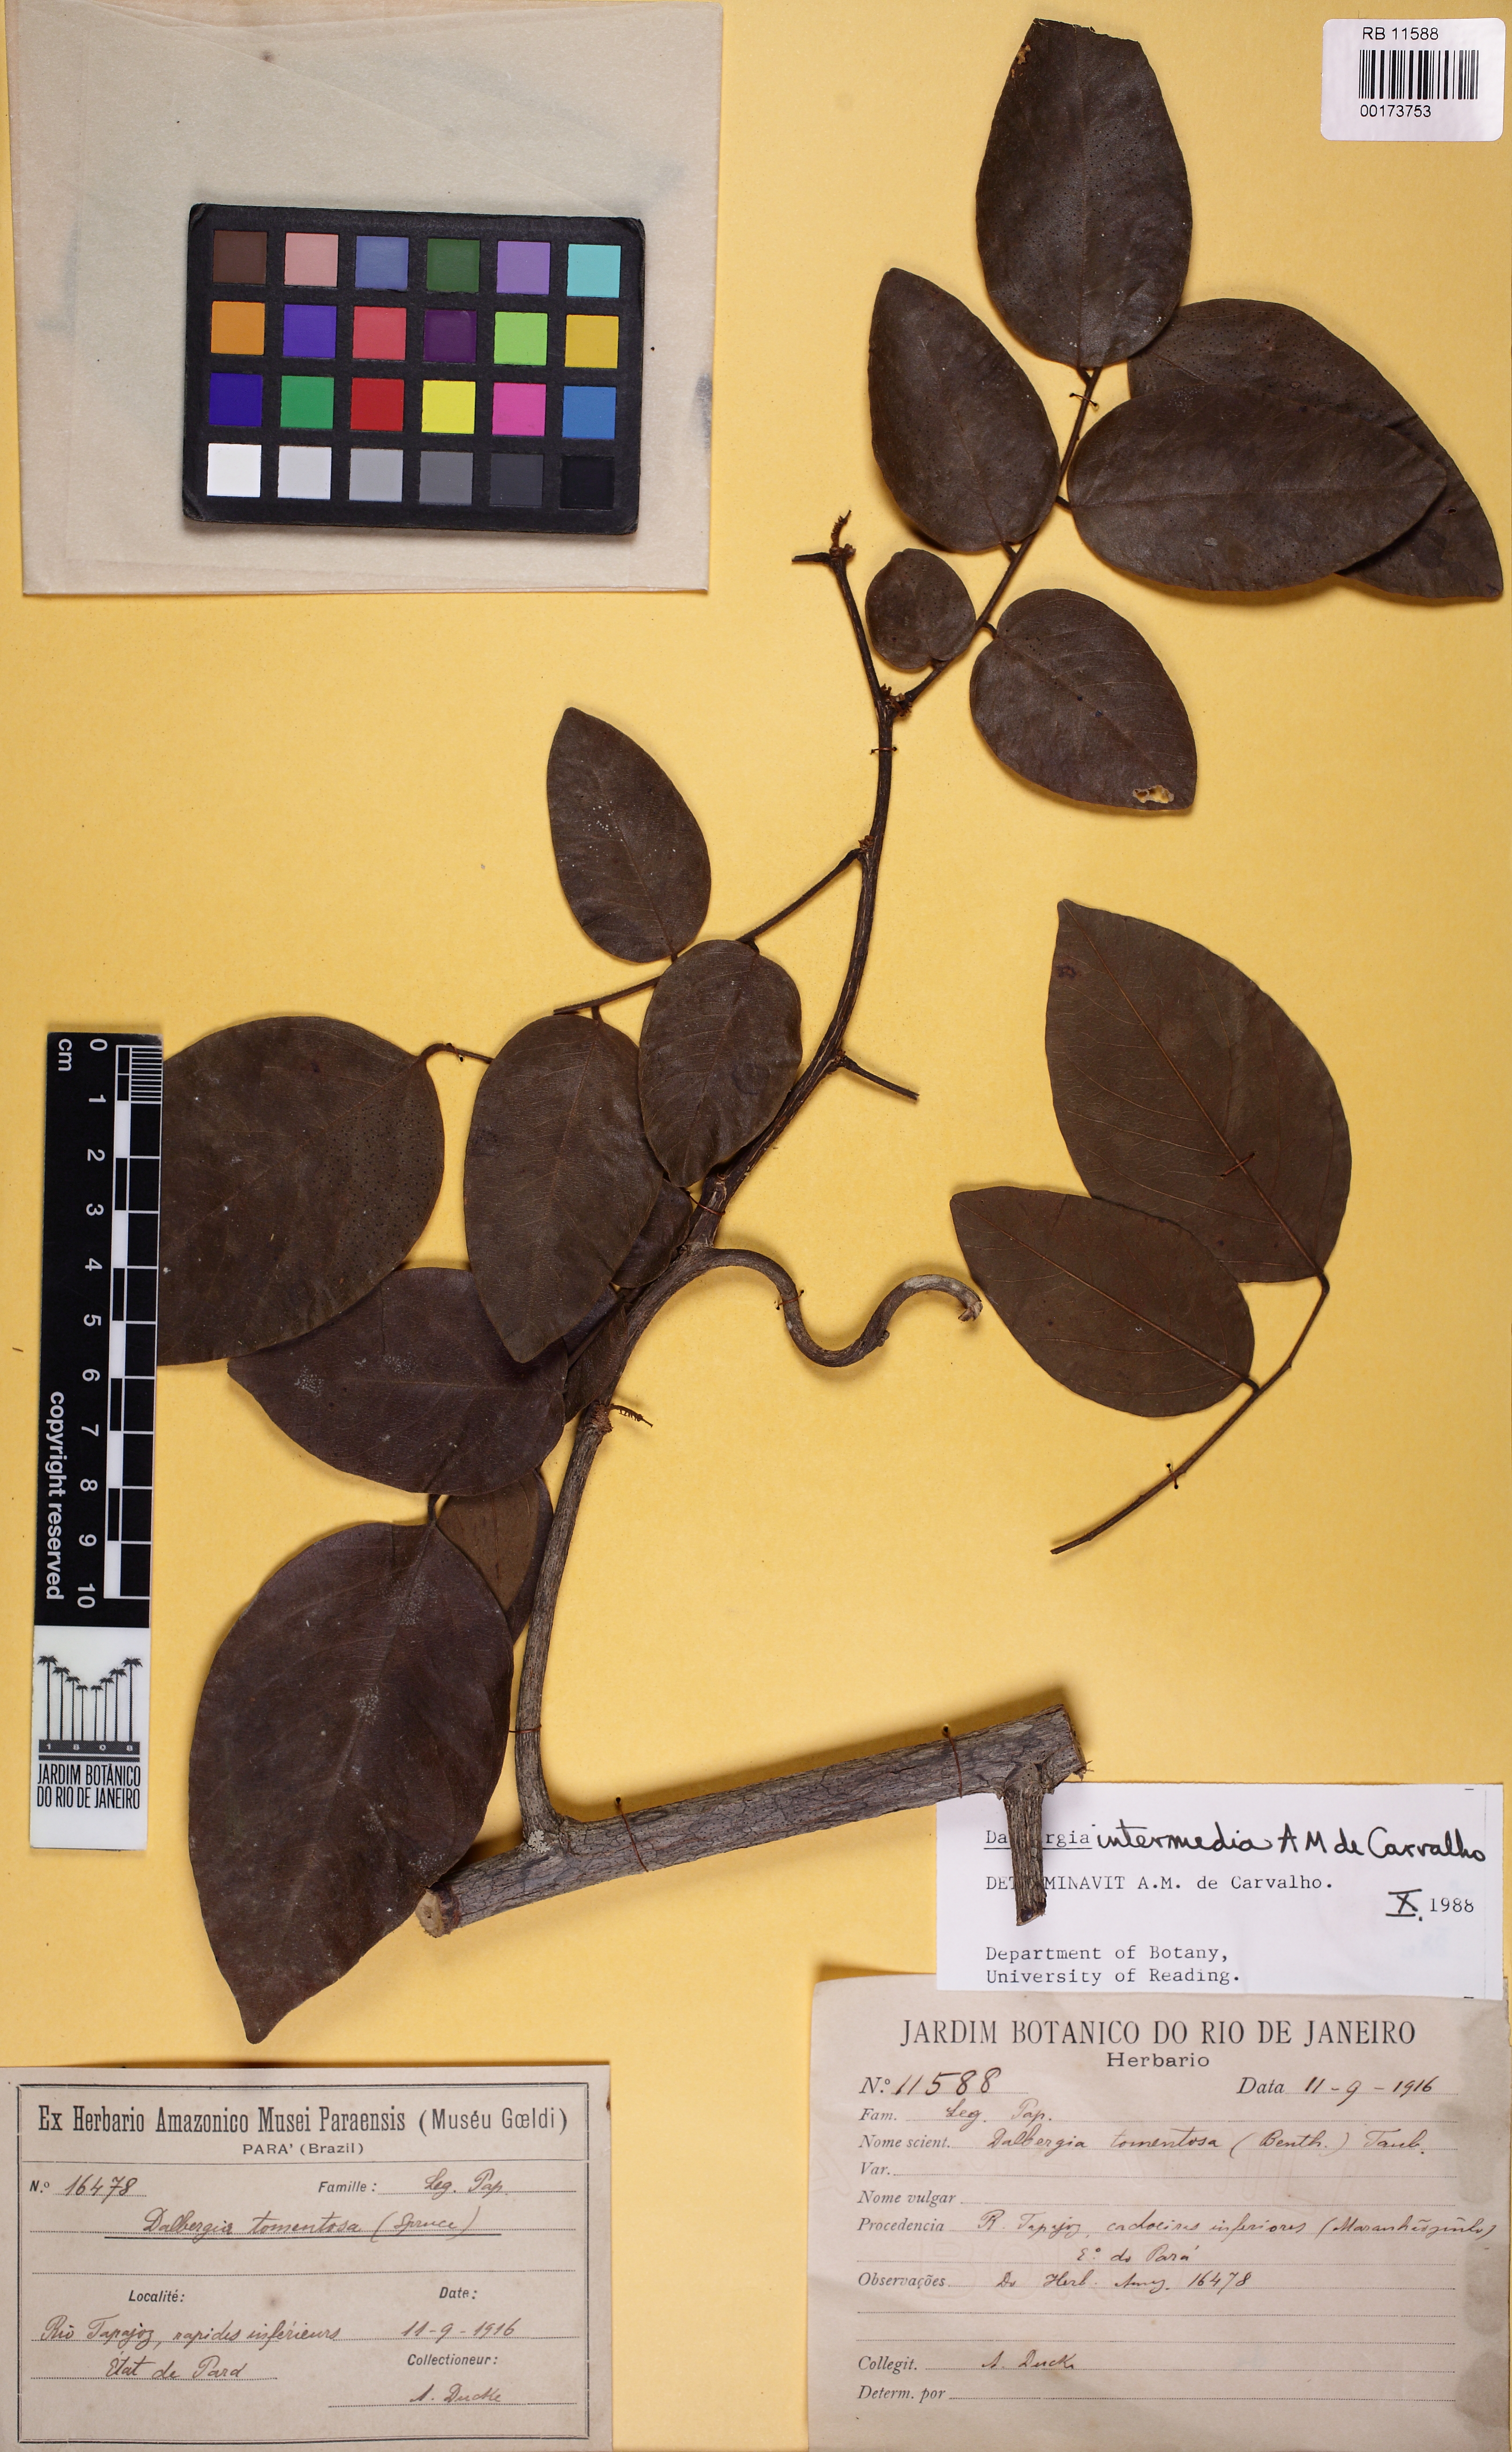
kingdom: Plantae
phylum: Tracheophyta
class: Magnoliopsida
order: Fabales
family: Fabaceae
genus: Dalbergia
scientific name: Dalbergia intermedia
